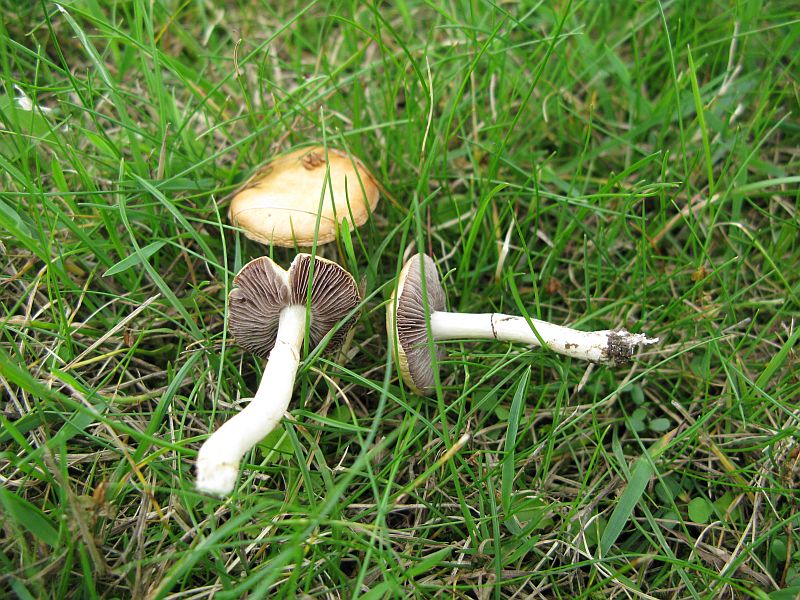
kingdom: Fungi
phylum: Basidiomycota
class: Agaricomycetes
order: Agaricales
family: Hymenogastraceae
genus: Psilocybe
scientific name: Psilocybe coronilla
